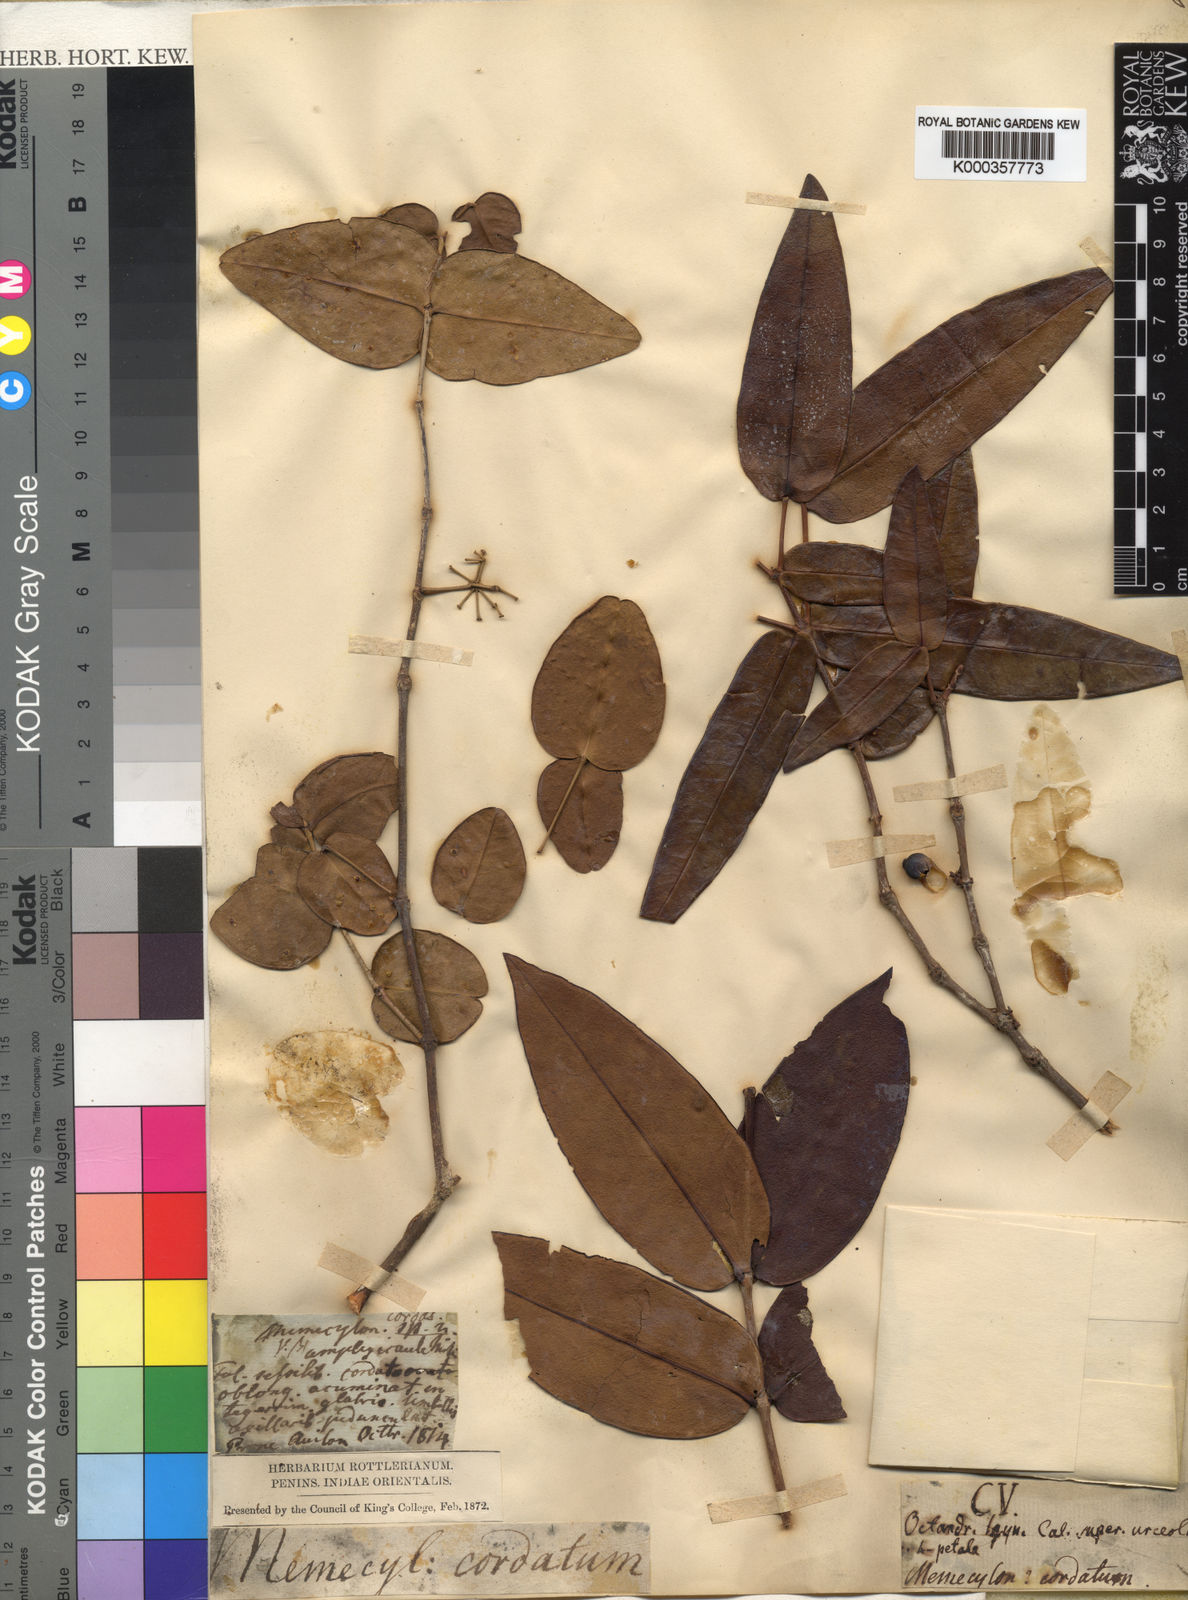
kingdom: Plantae
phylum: Tracheophyta
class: Magnoliopsida
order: Myrtales
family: Melastomataceae
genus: Memecylon
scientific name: Memecylon sessile
